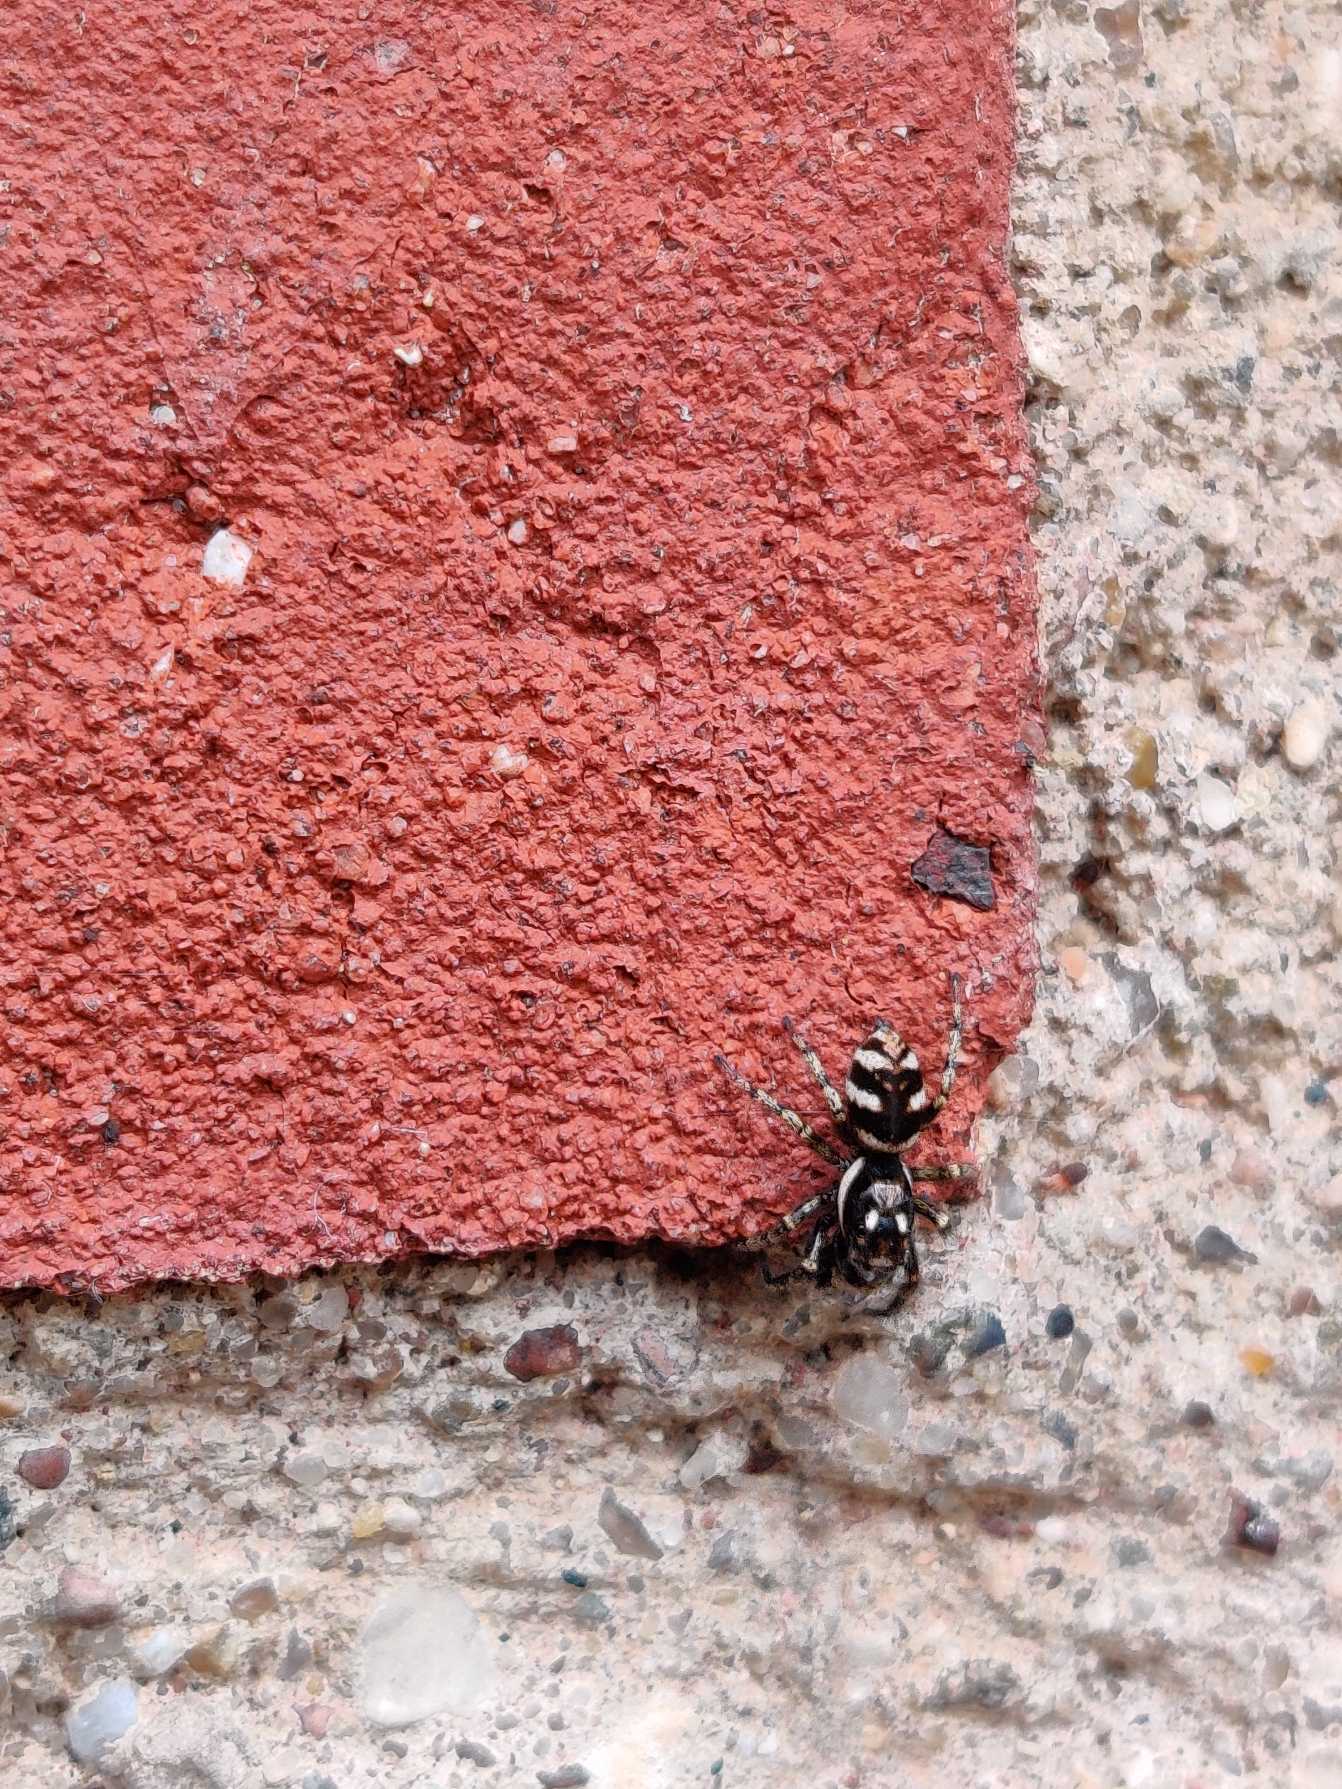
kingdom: Animalia
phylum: Arthropoda
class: Arachnida
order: Araneae
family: Salticidae
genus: Salticus
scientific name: Salticus scenicus
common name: Almindelig zebraedderkop
